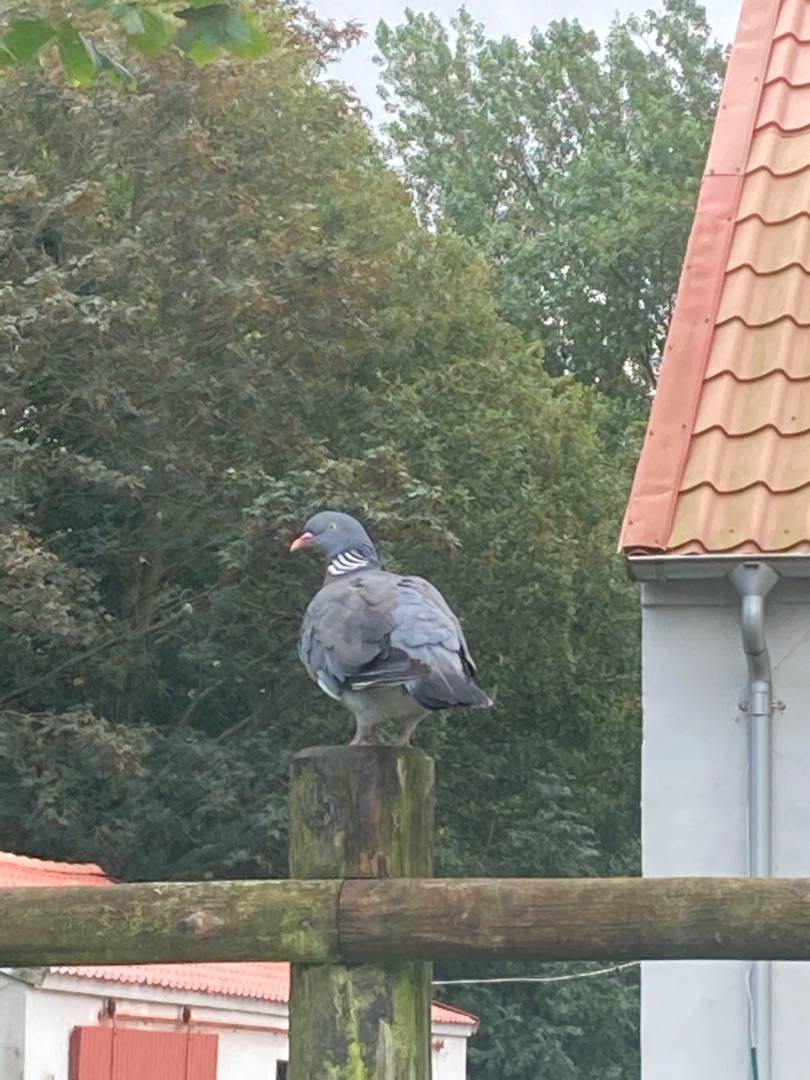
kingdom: Animalia
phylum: Chordata
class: Aves
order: Columbiformes
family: Columbidae
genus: Columba
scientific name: Columba palumbus
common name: Ringdue
